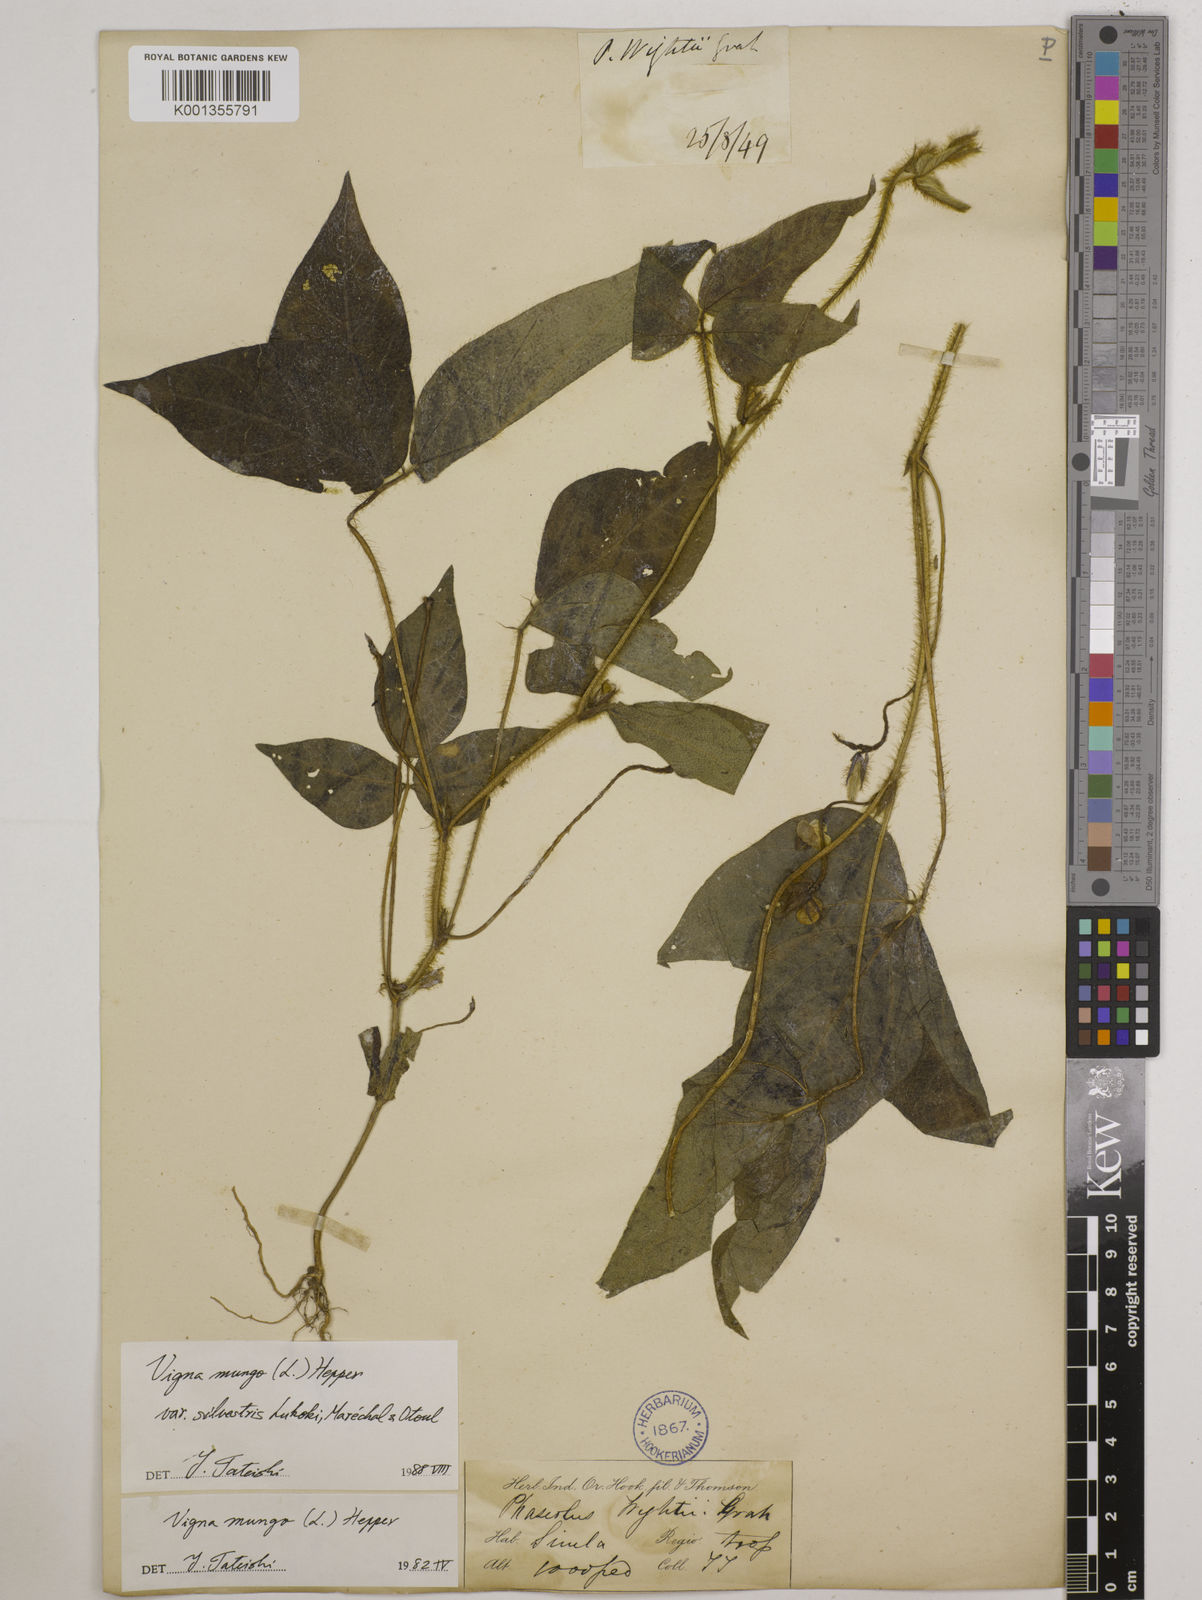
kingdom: Plantae
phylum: Tracheophyta
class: Magnoliopsida
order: Fabales
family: Fabaceae
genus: Vigna
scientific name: Vigna mungo
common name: Black gram
